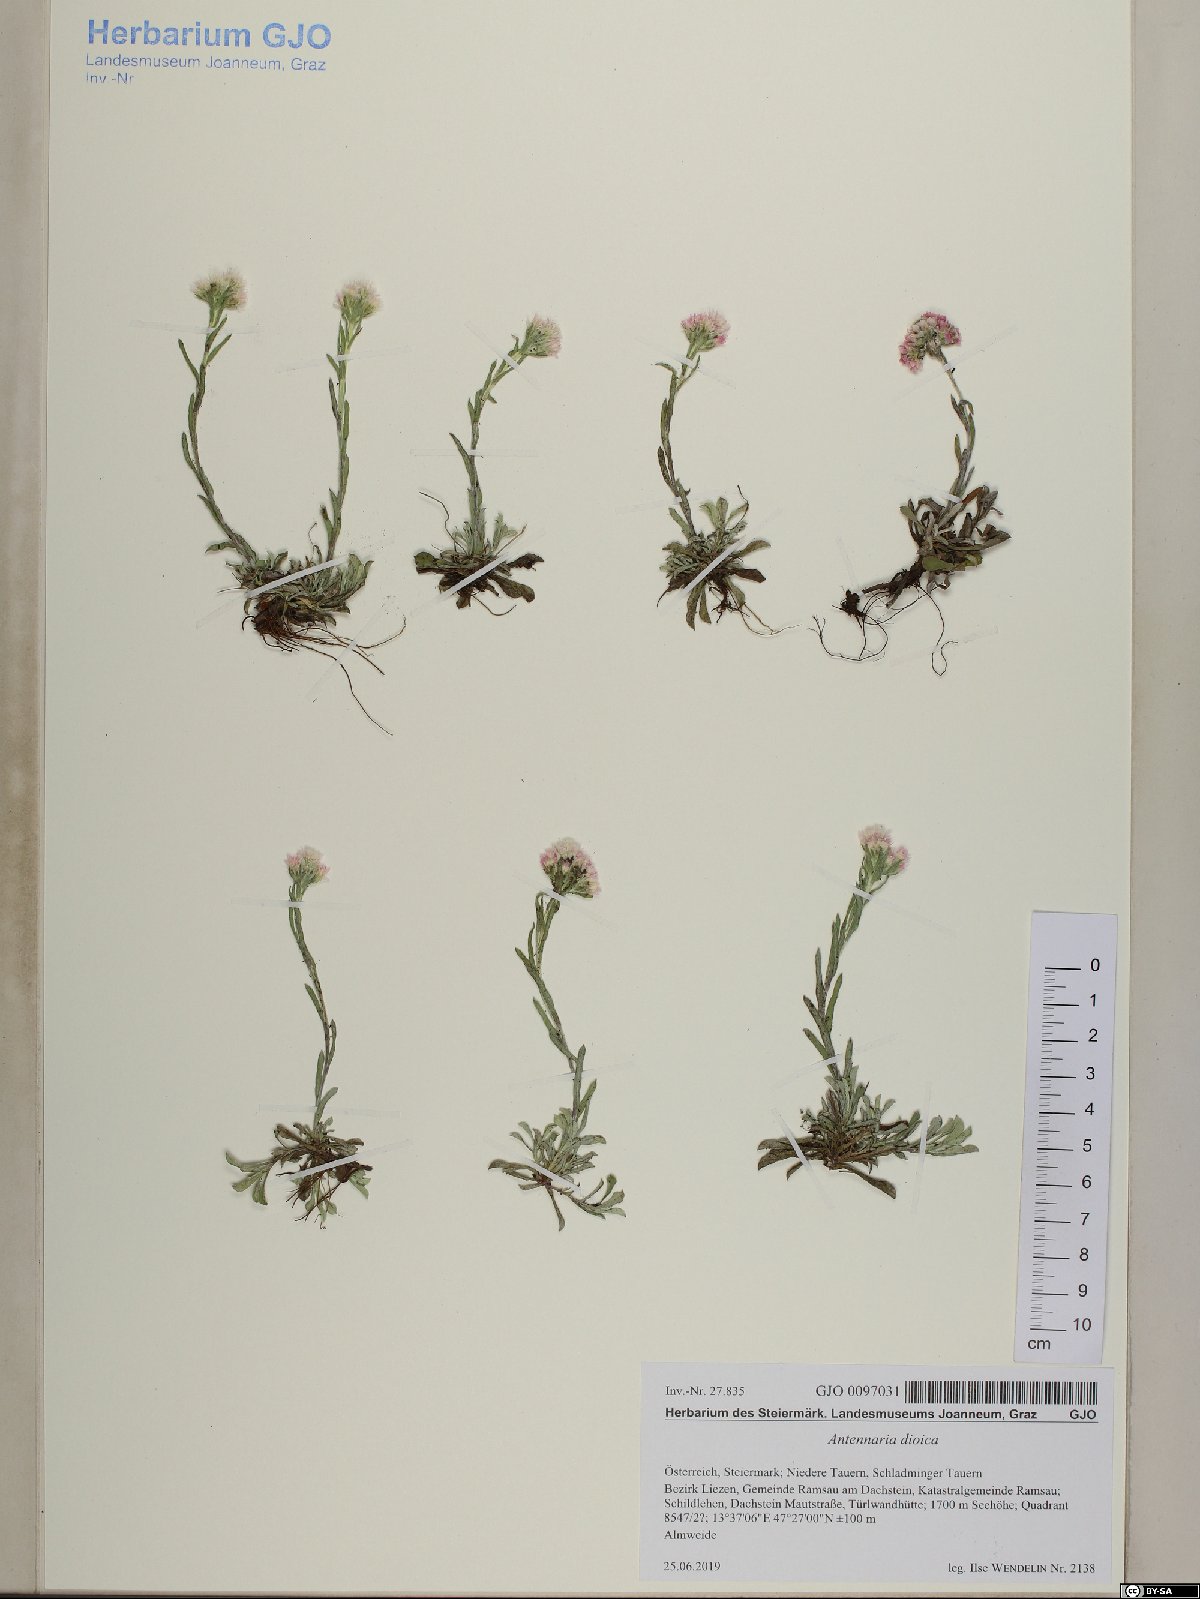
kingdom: Plantae
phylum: Tracheophyta
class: Magnoliopsida
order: Asterales
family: Asteraceae
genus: Antennaria
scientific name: Antennaria dioica
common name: Mountain everlasting
